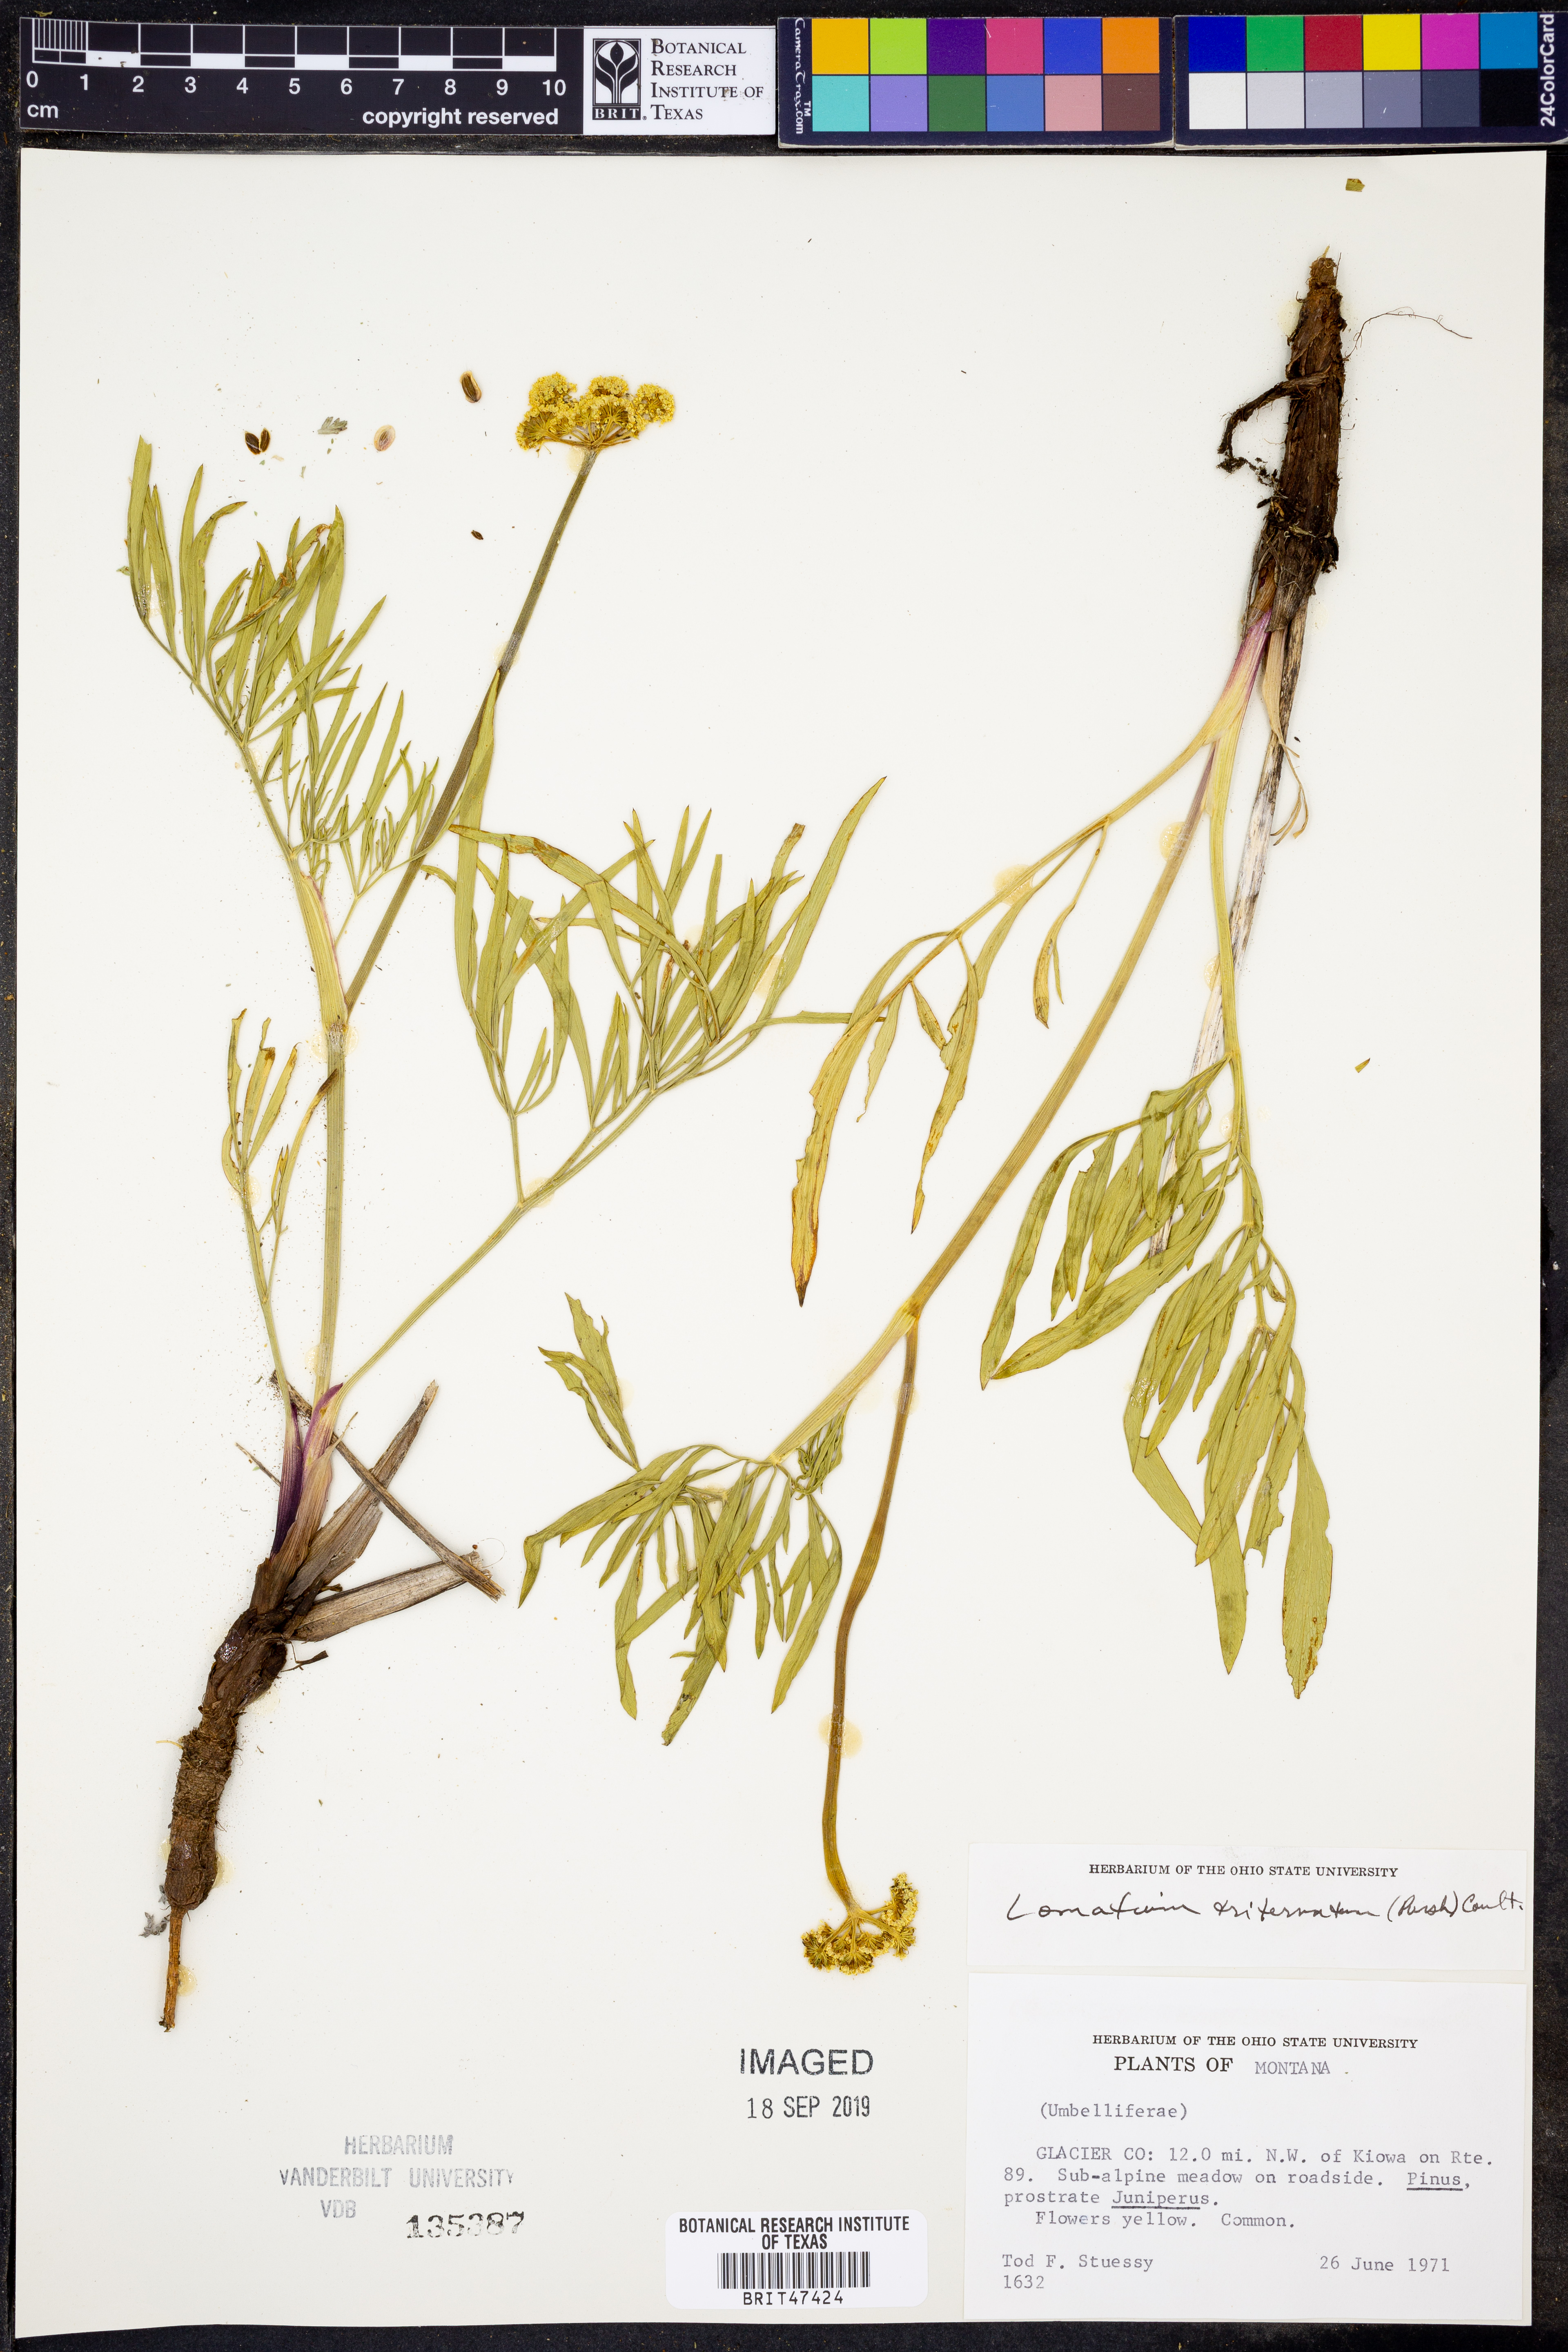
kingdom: Plantae
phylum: Tracheophyta
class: Magnoliopsida
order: Apiales
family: Apiaceae
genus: Lomatium
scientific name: Lomatium triternatum
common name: Ternate lomatium
